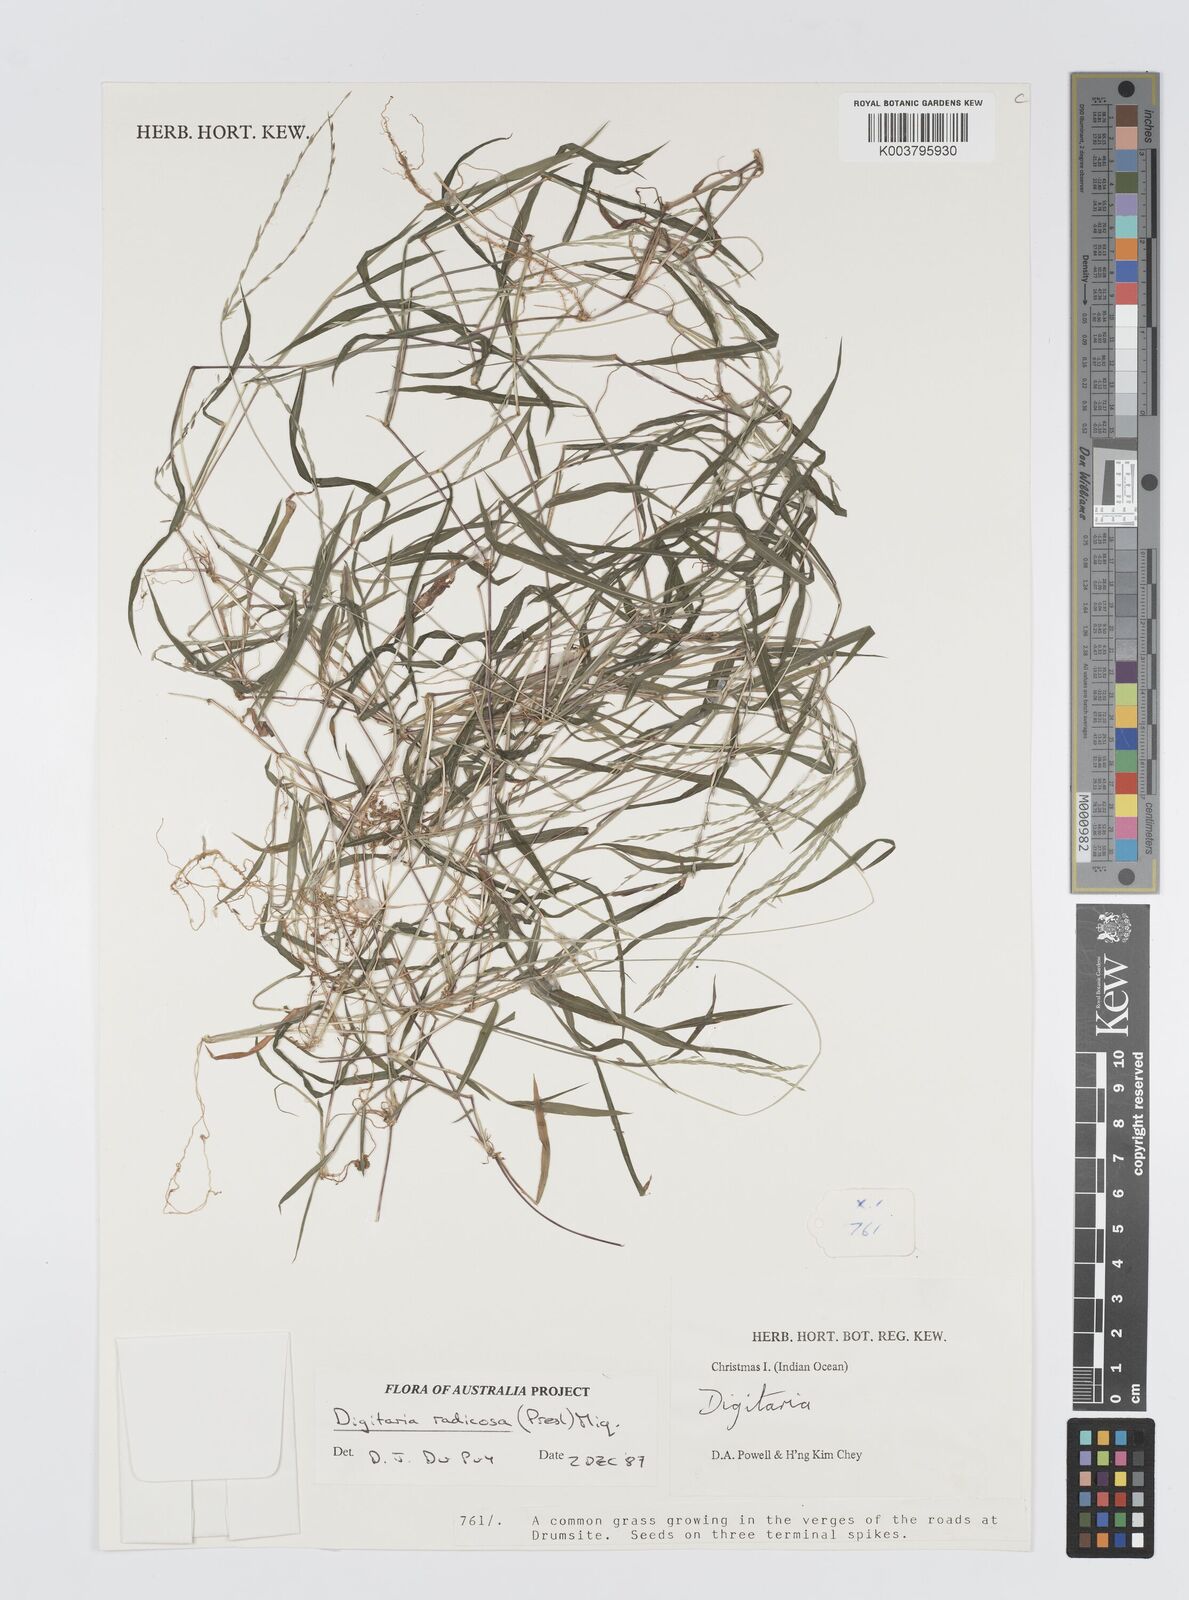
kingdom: Plantae
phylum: Tracheophyta
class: Liliopsida
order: Poales
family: Poaceae
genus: Digitaria
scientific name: Digitaria radicosa
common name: Trailing crabgrass
